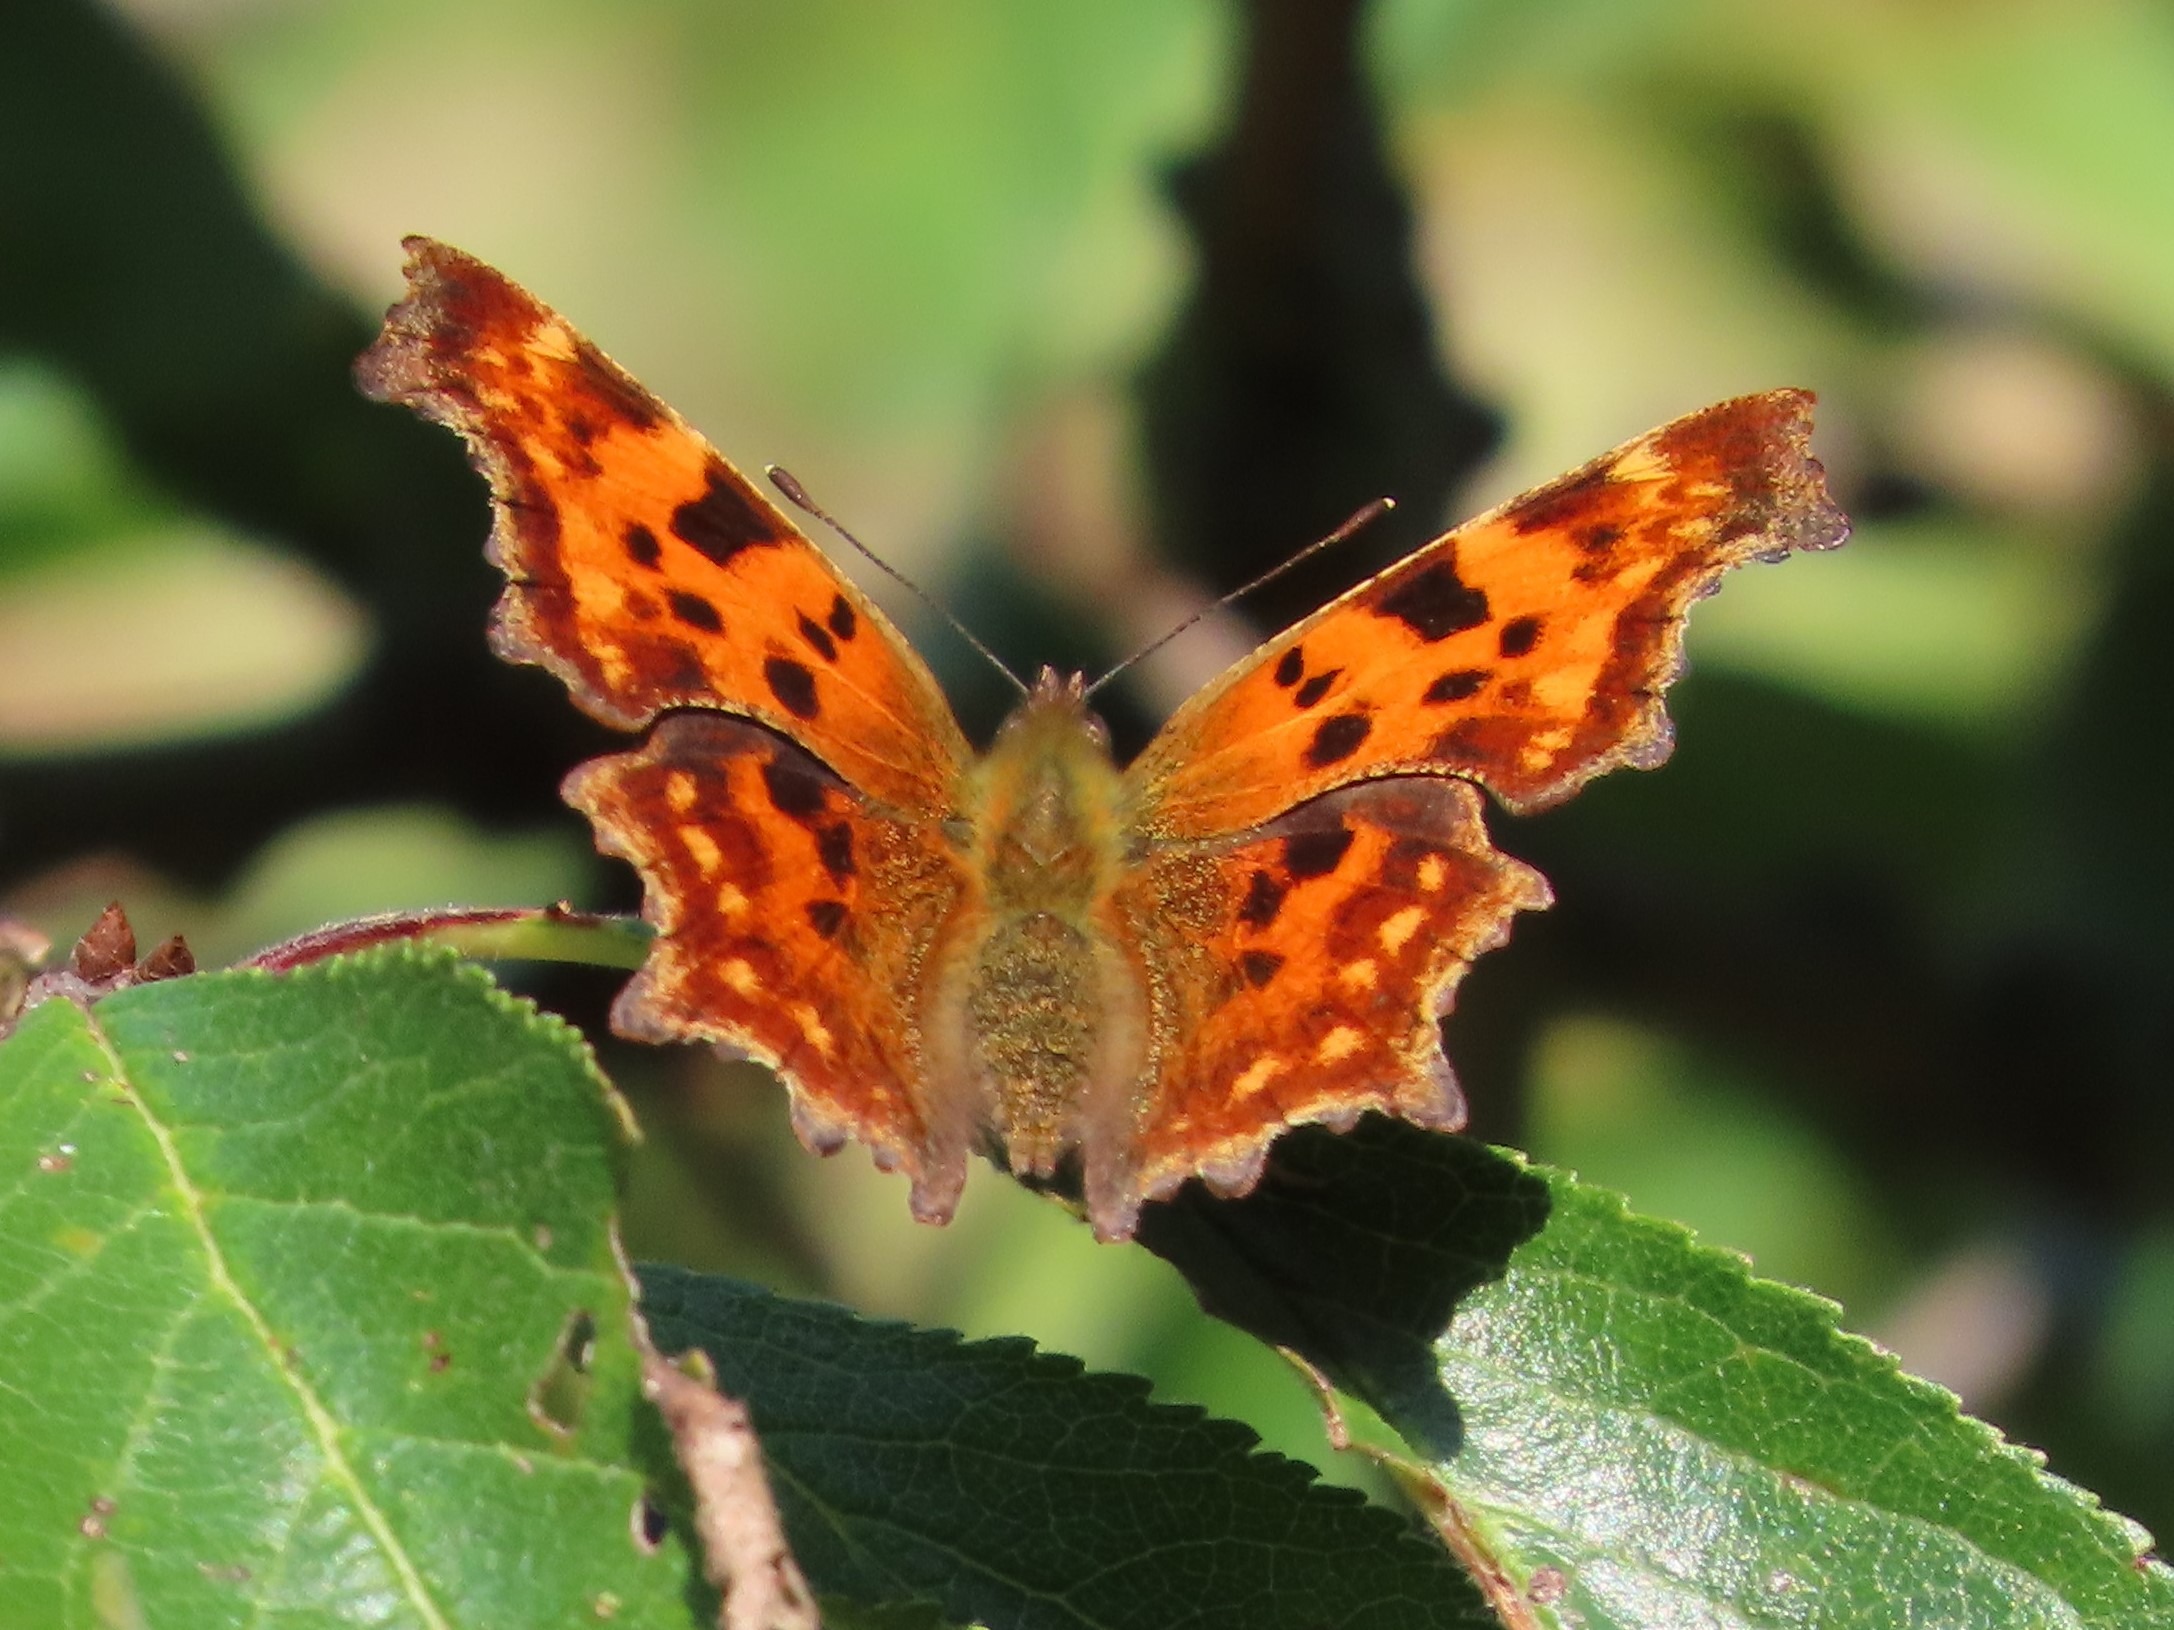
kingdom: Animalia
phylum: Arthropoda
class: Insecta
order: Lepidoptera
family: Nymphalidae
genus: Polygonia
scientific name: Polygonia c-album
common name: Det hvide C
